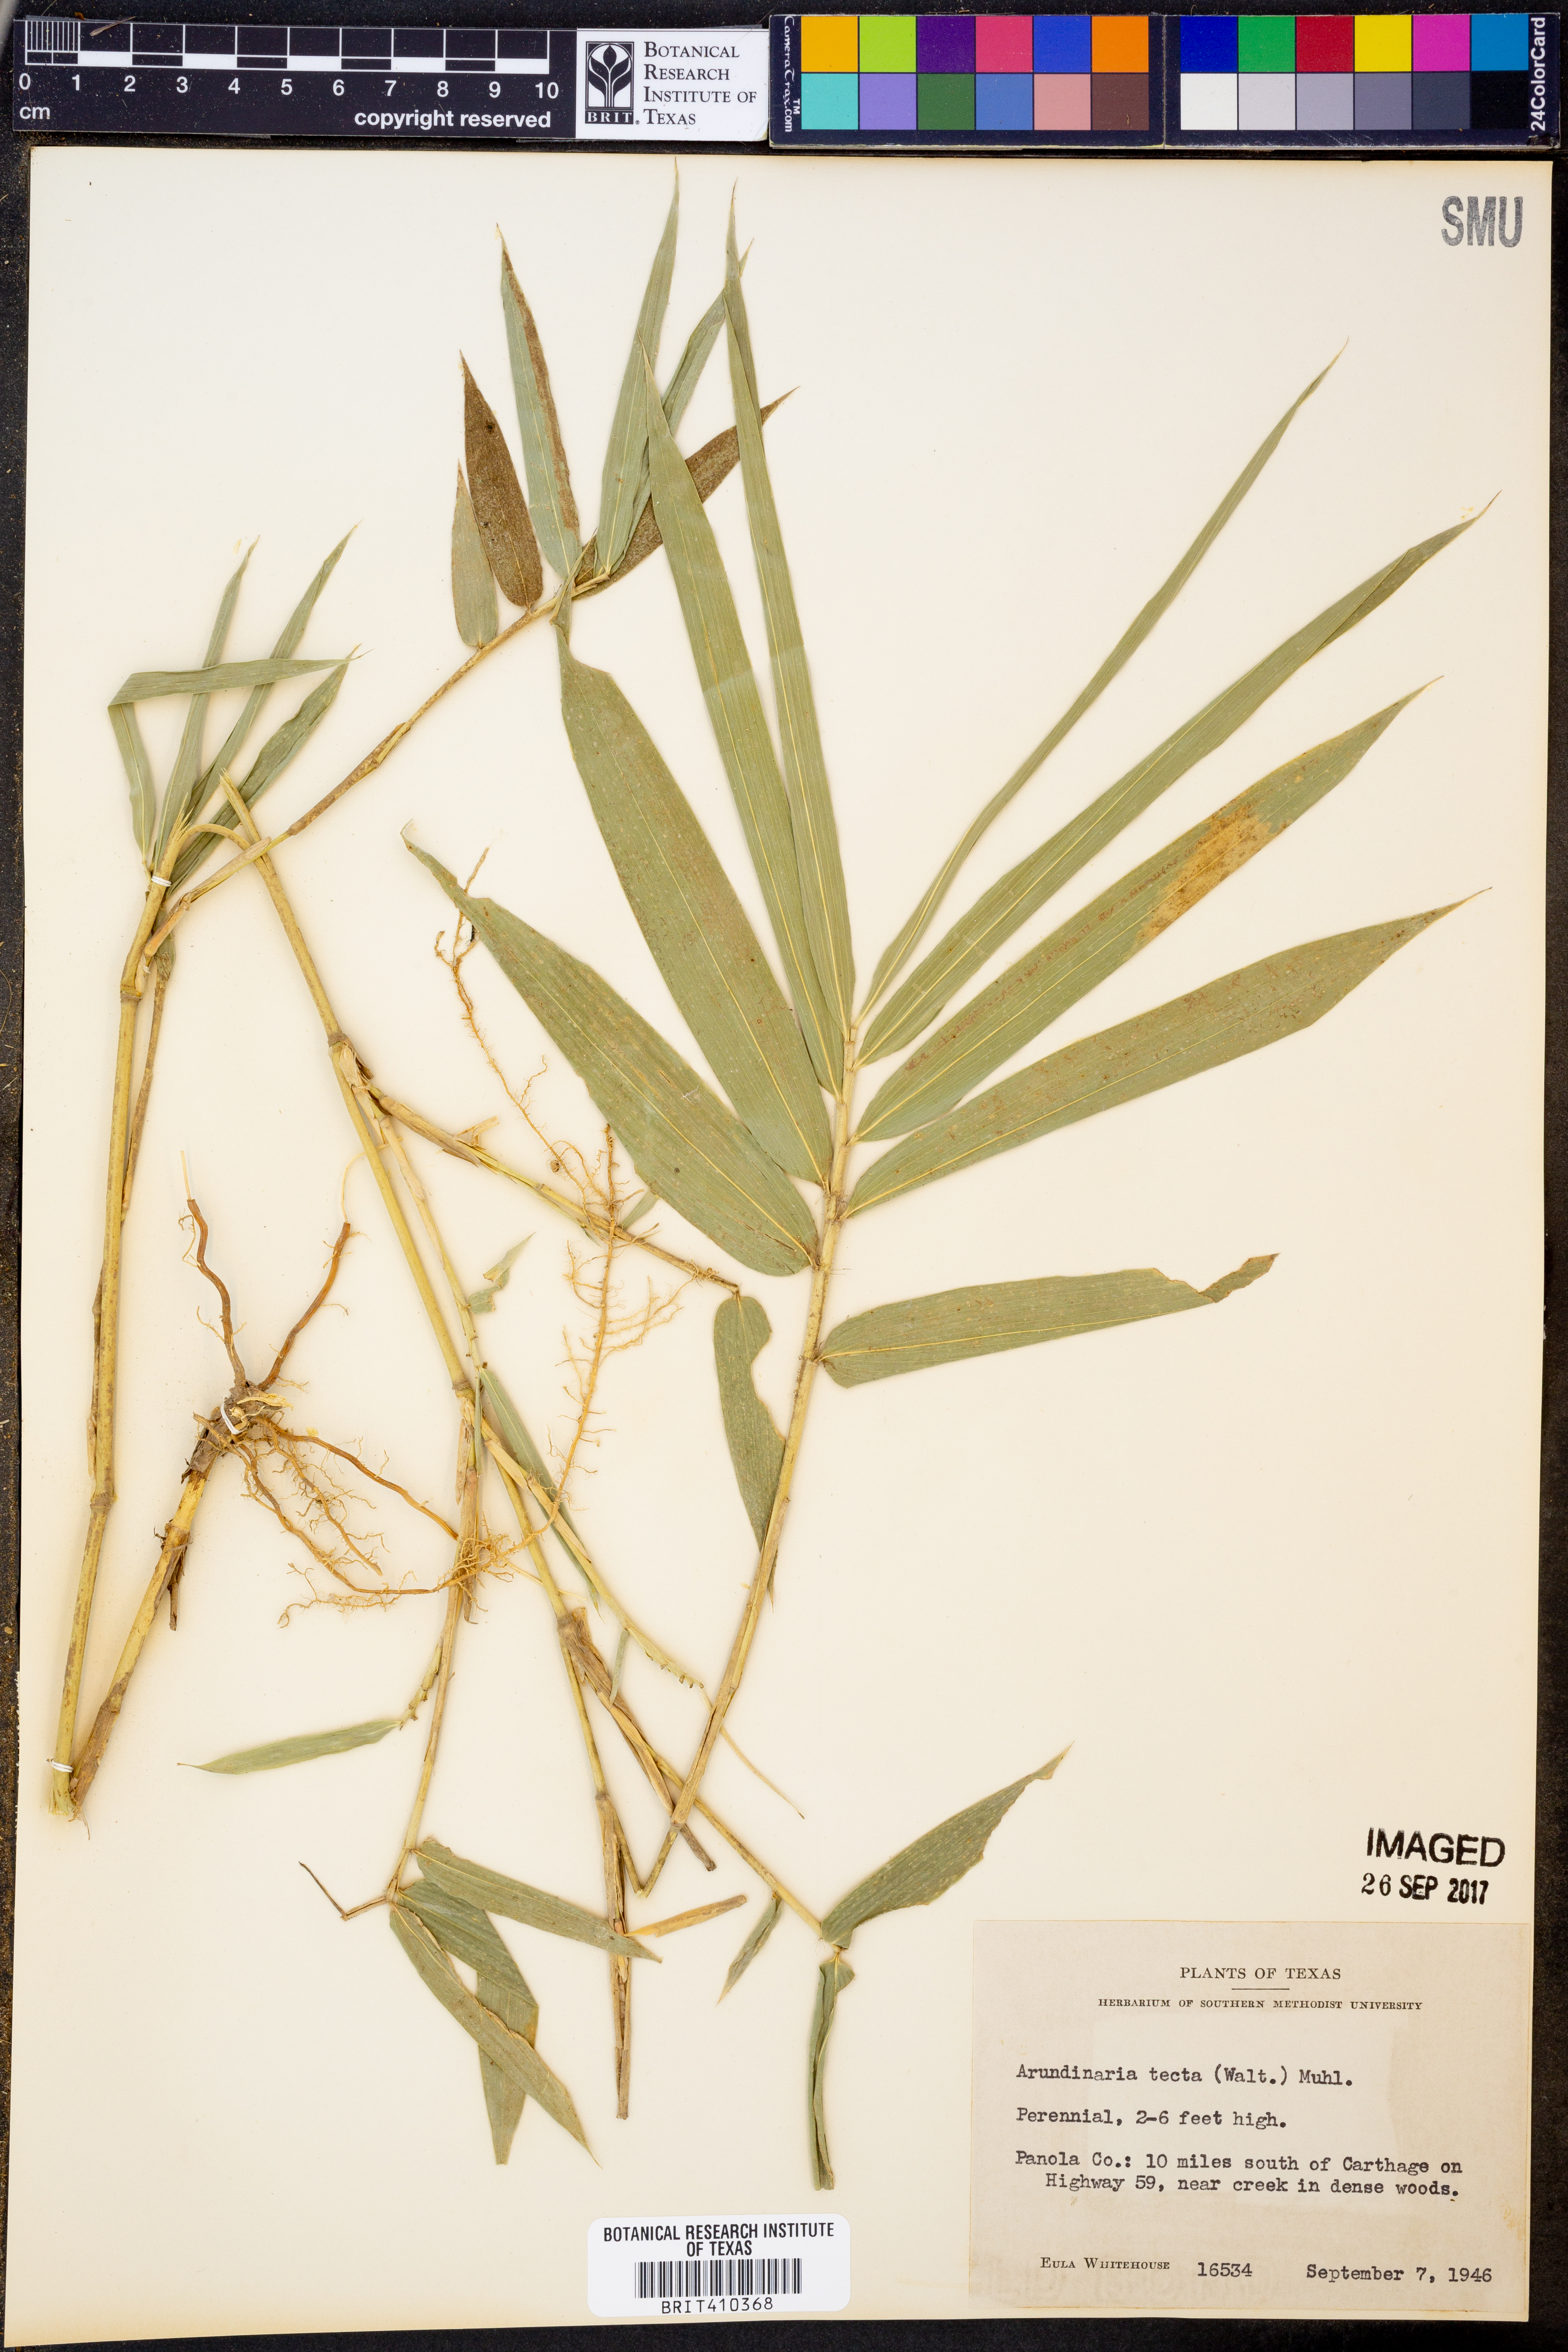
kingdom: Plantae
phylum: Tracheophyta
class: Liliopsida
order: Poales
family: Poaceae
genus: Arundinaria
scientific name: Arundinaria tecta
